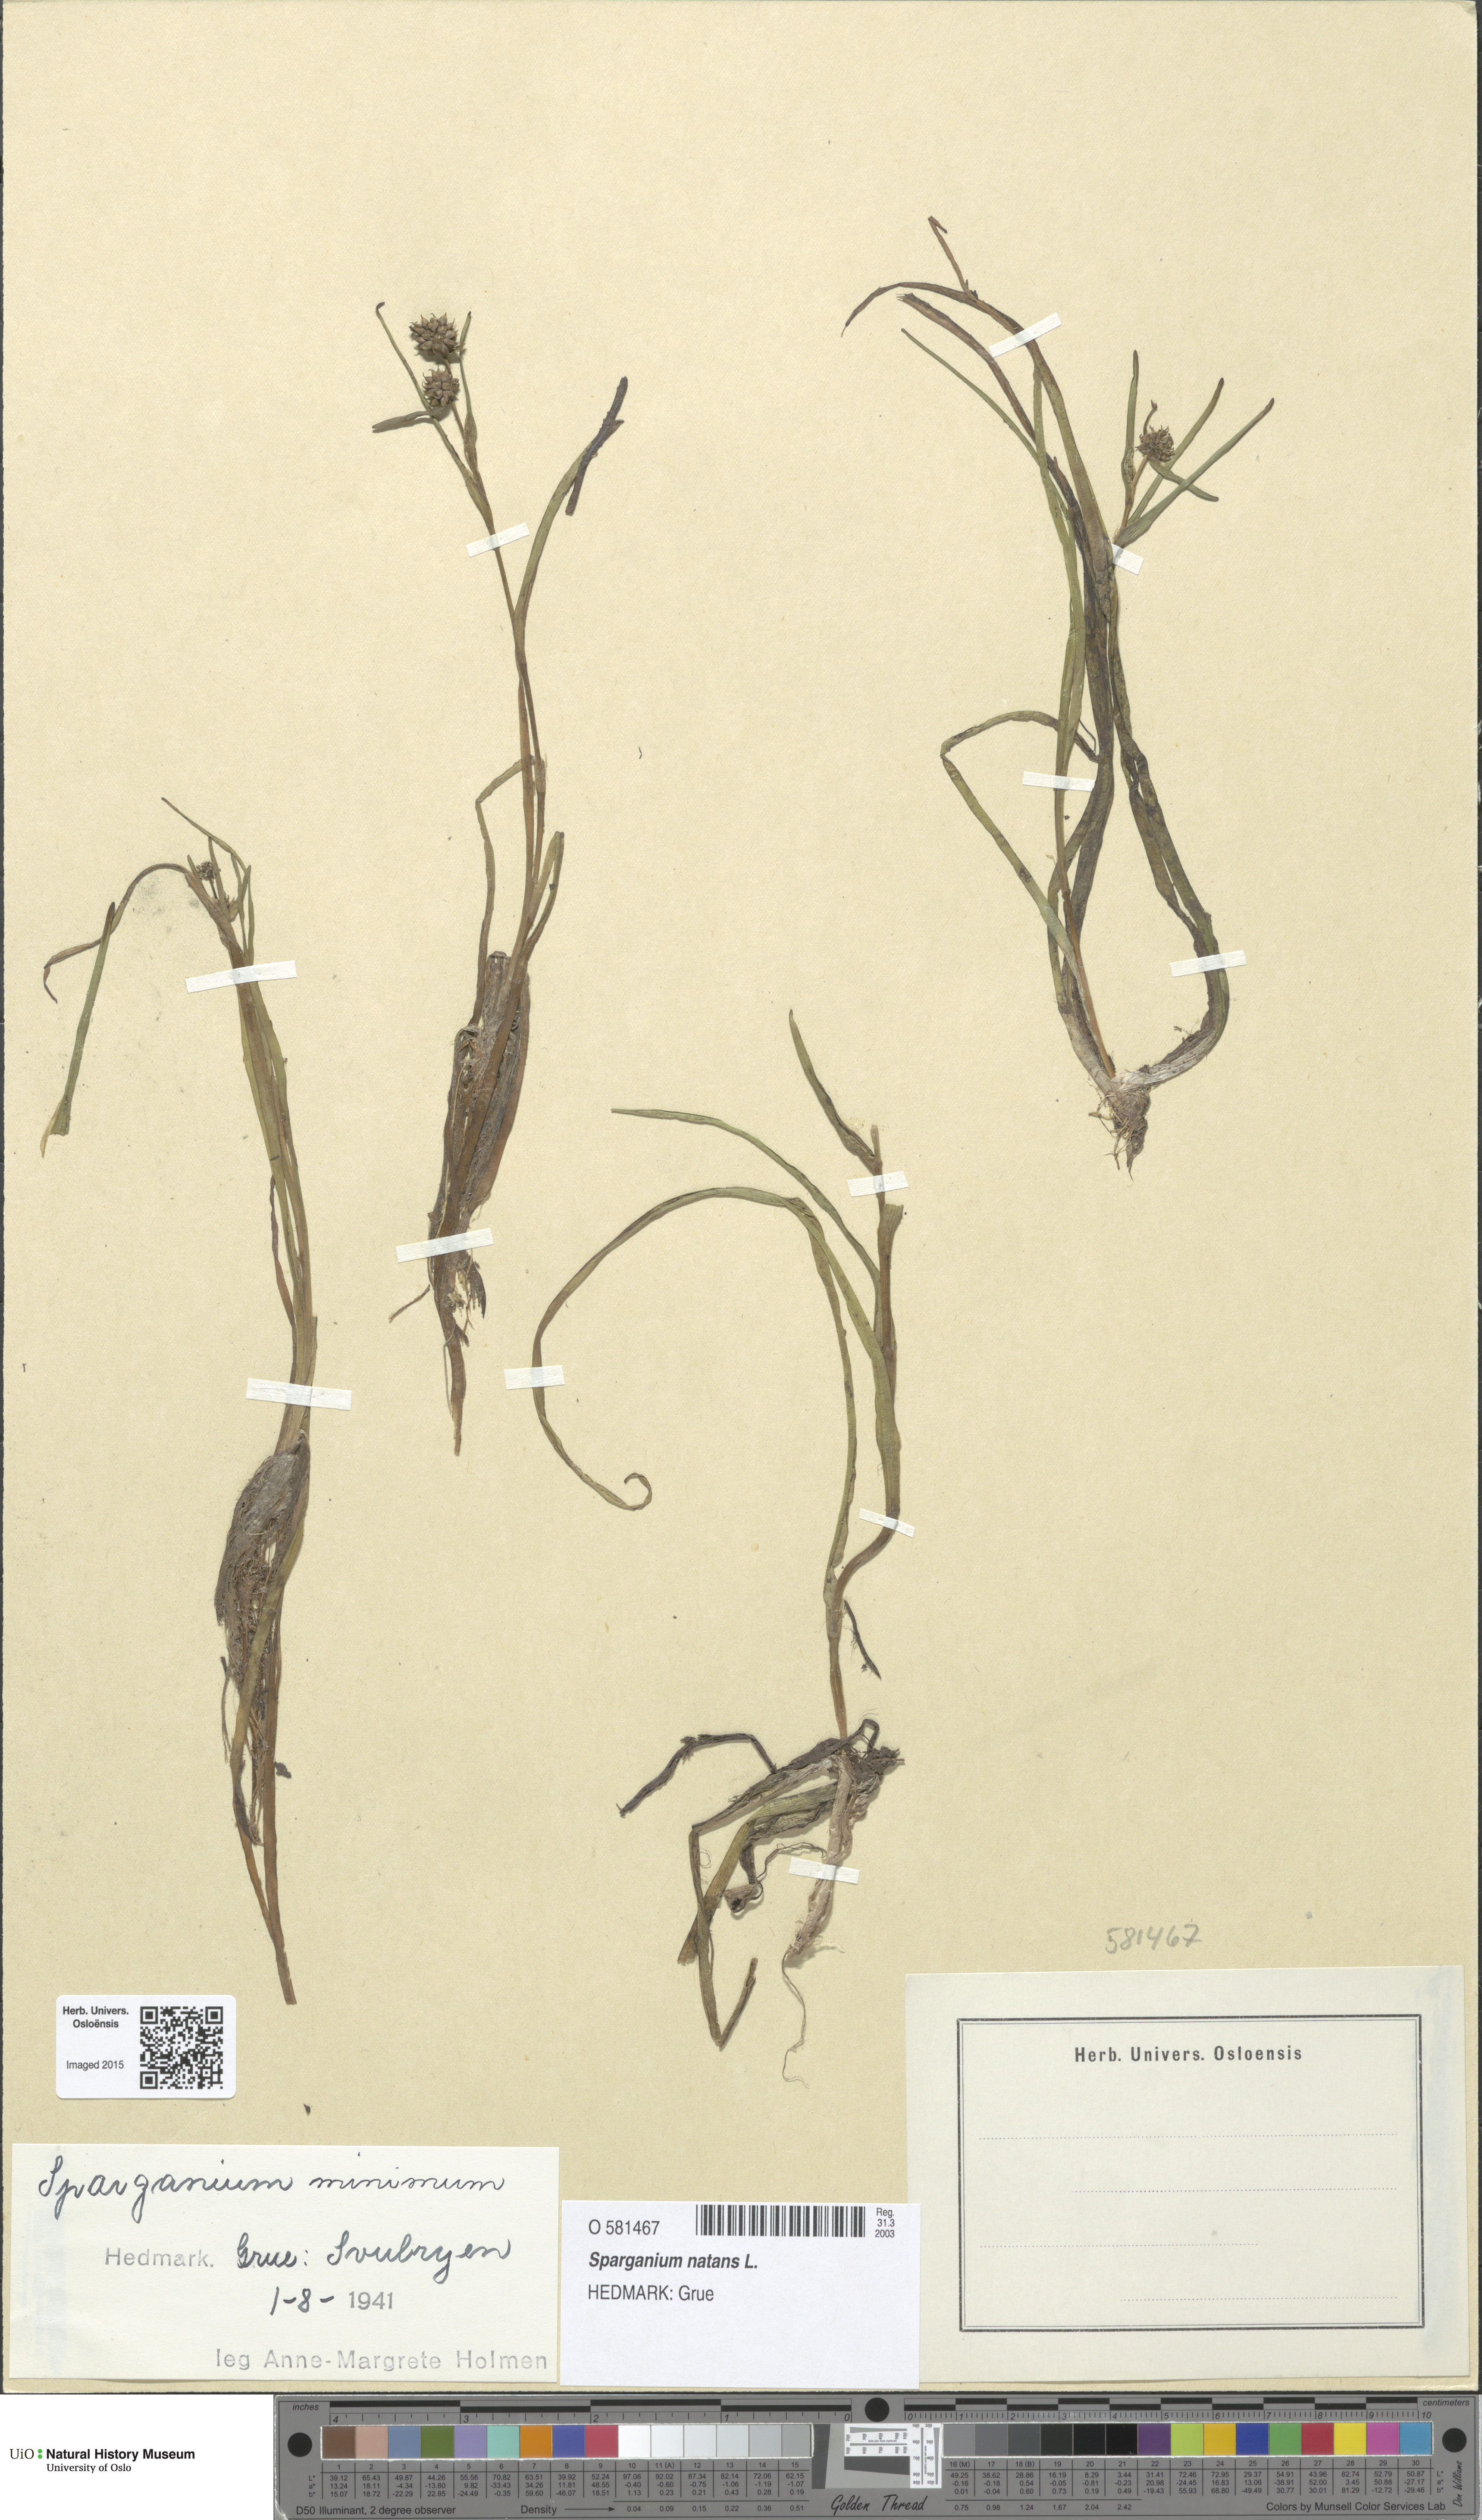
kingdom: Plantae
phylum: Tracheophyta
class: Liliopsida
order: Poales
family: Typhaceae
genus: Sparganium
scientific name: Sparganium natans
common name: Least bur-reed
